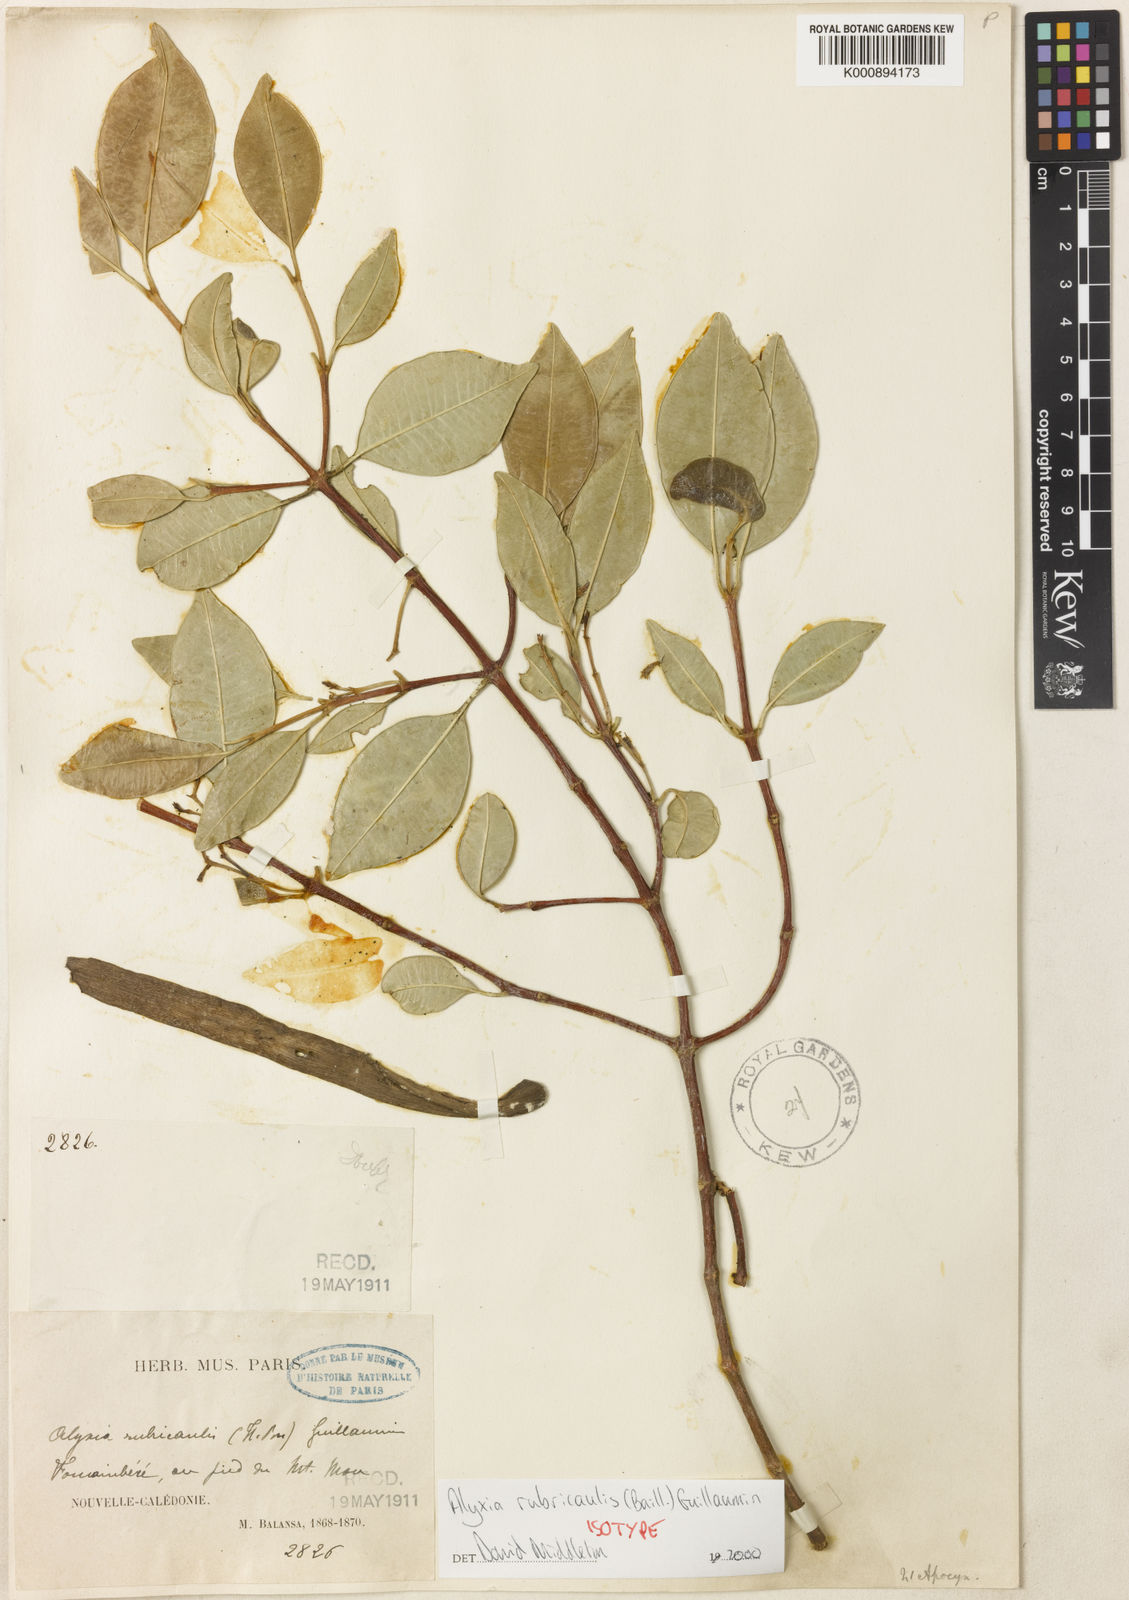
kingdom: Plantae
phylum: Tracheophyta
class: Magnoliopsida
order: Gentianales
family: Apocynaceae
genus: Alyxia
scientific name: Alyxia rubricaulis
